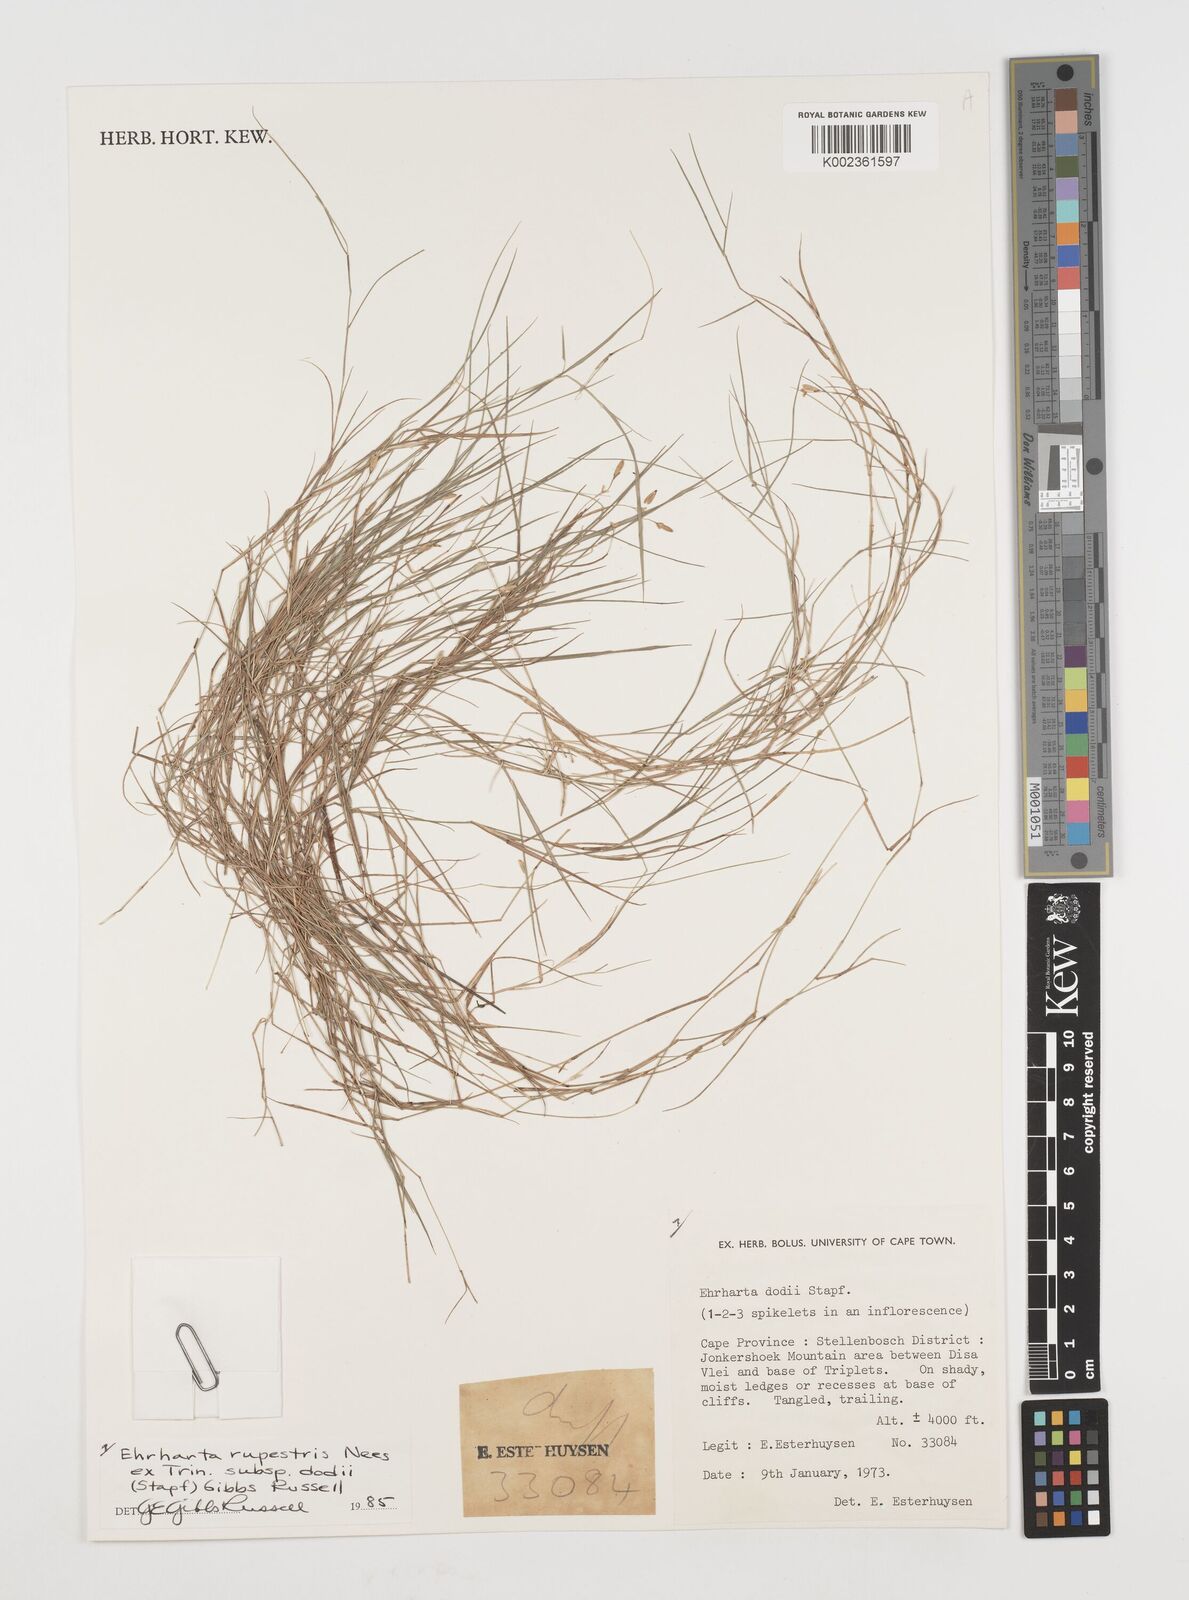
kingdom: Plantae
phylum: Tracheophyta
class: Liliopsida
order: Poales
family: Poaceae
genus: Ehrharta
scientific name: Ehrharta rupestris
